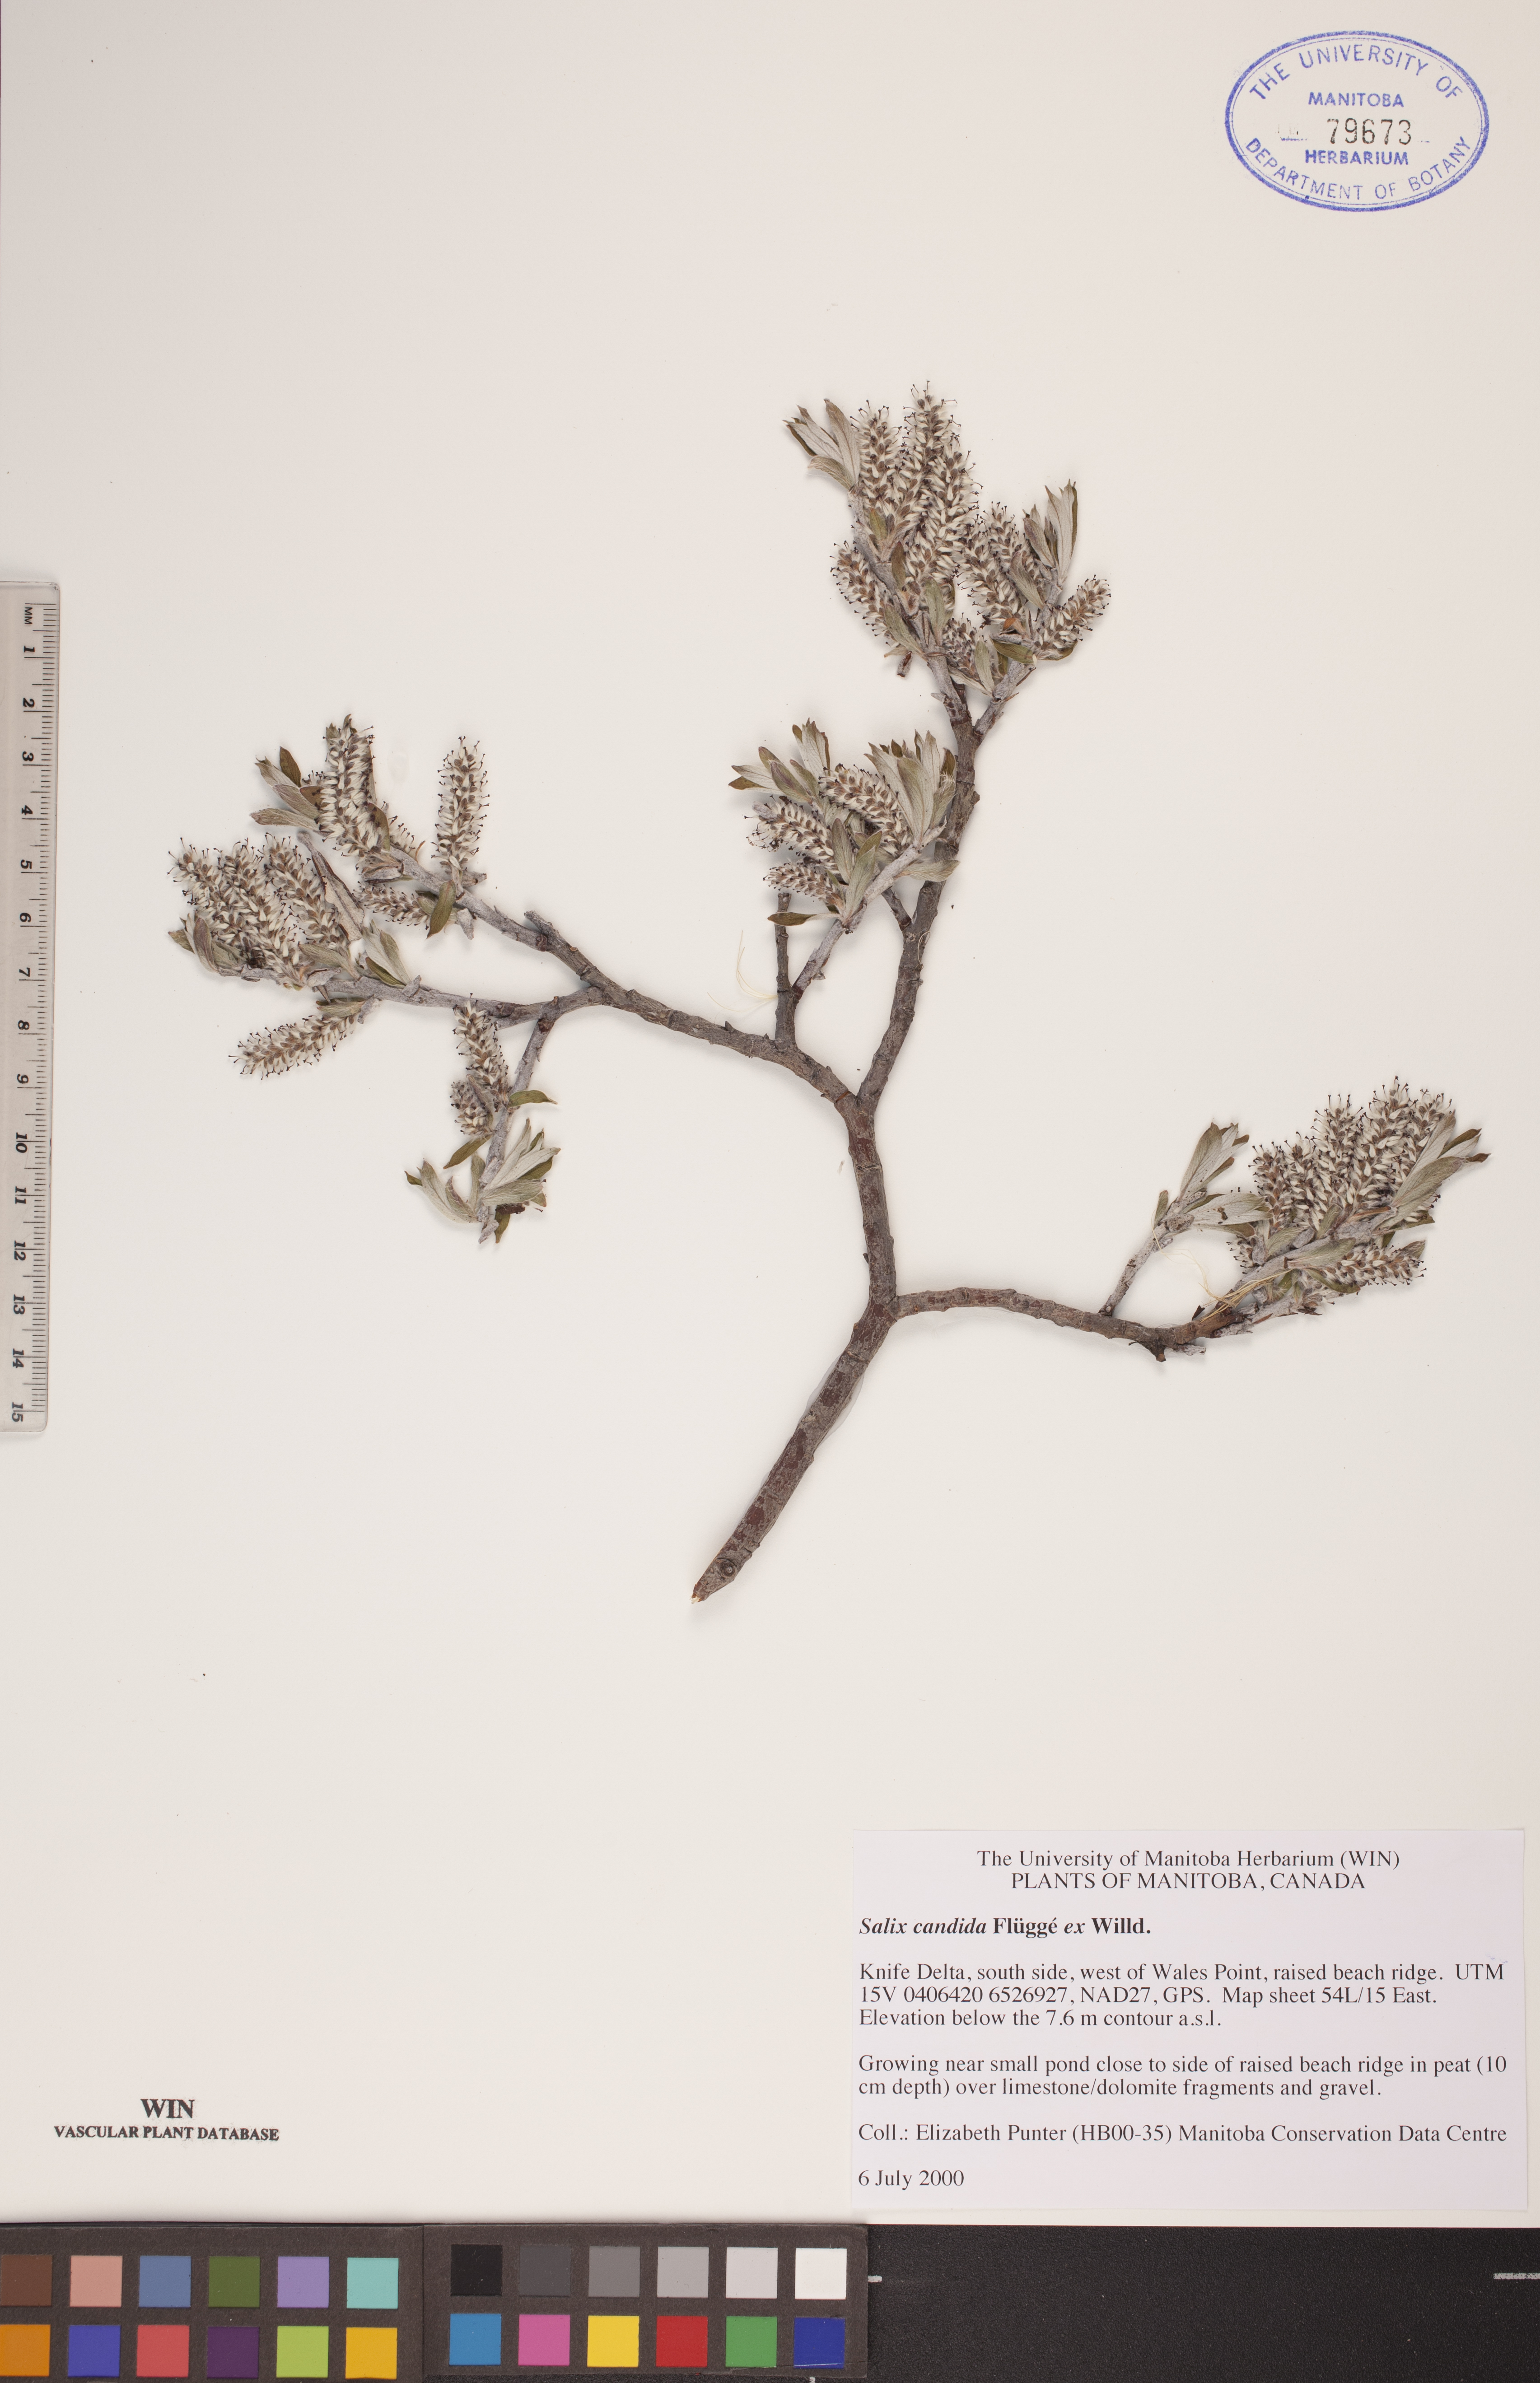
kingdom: Plantae
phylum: Tracheophyta
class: Magnoliopsida
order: Malpighiales
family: Salicaceae
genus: Salix
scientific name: Salix candida
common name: Hoary willow
